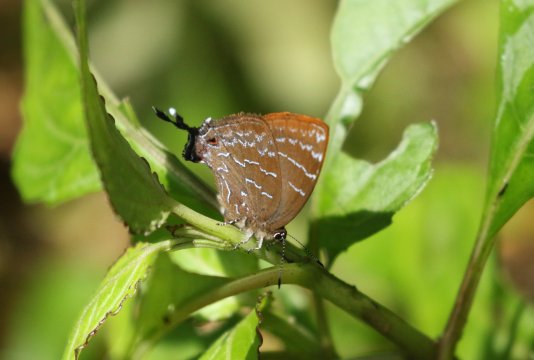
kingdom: Animalia
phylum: Arthropoda
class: Insecta
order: Lepidoptera
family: Lycaenidae
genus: Johnsonita
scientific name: Johnsonita carpia
